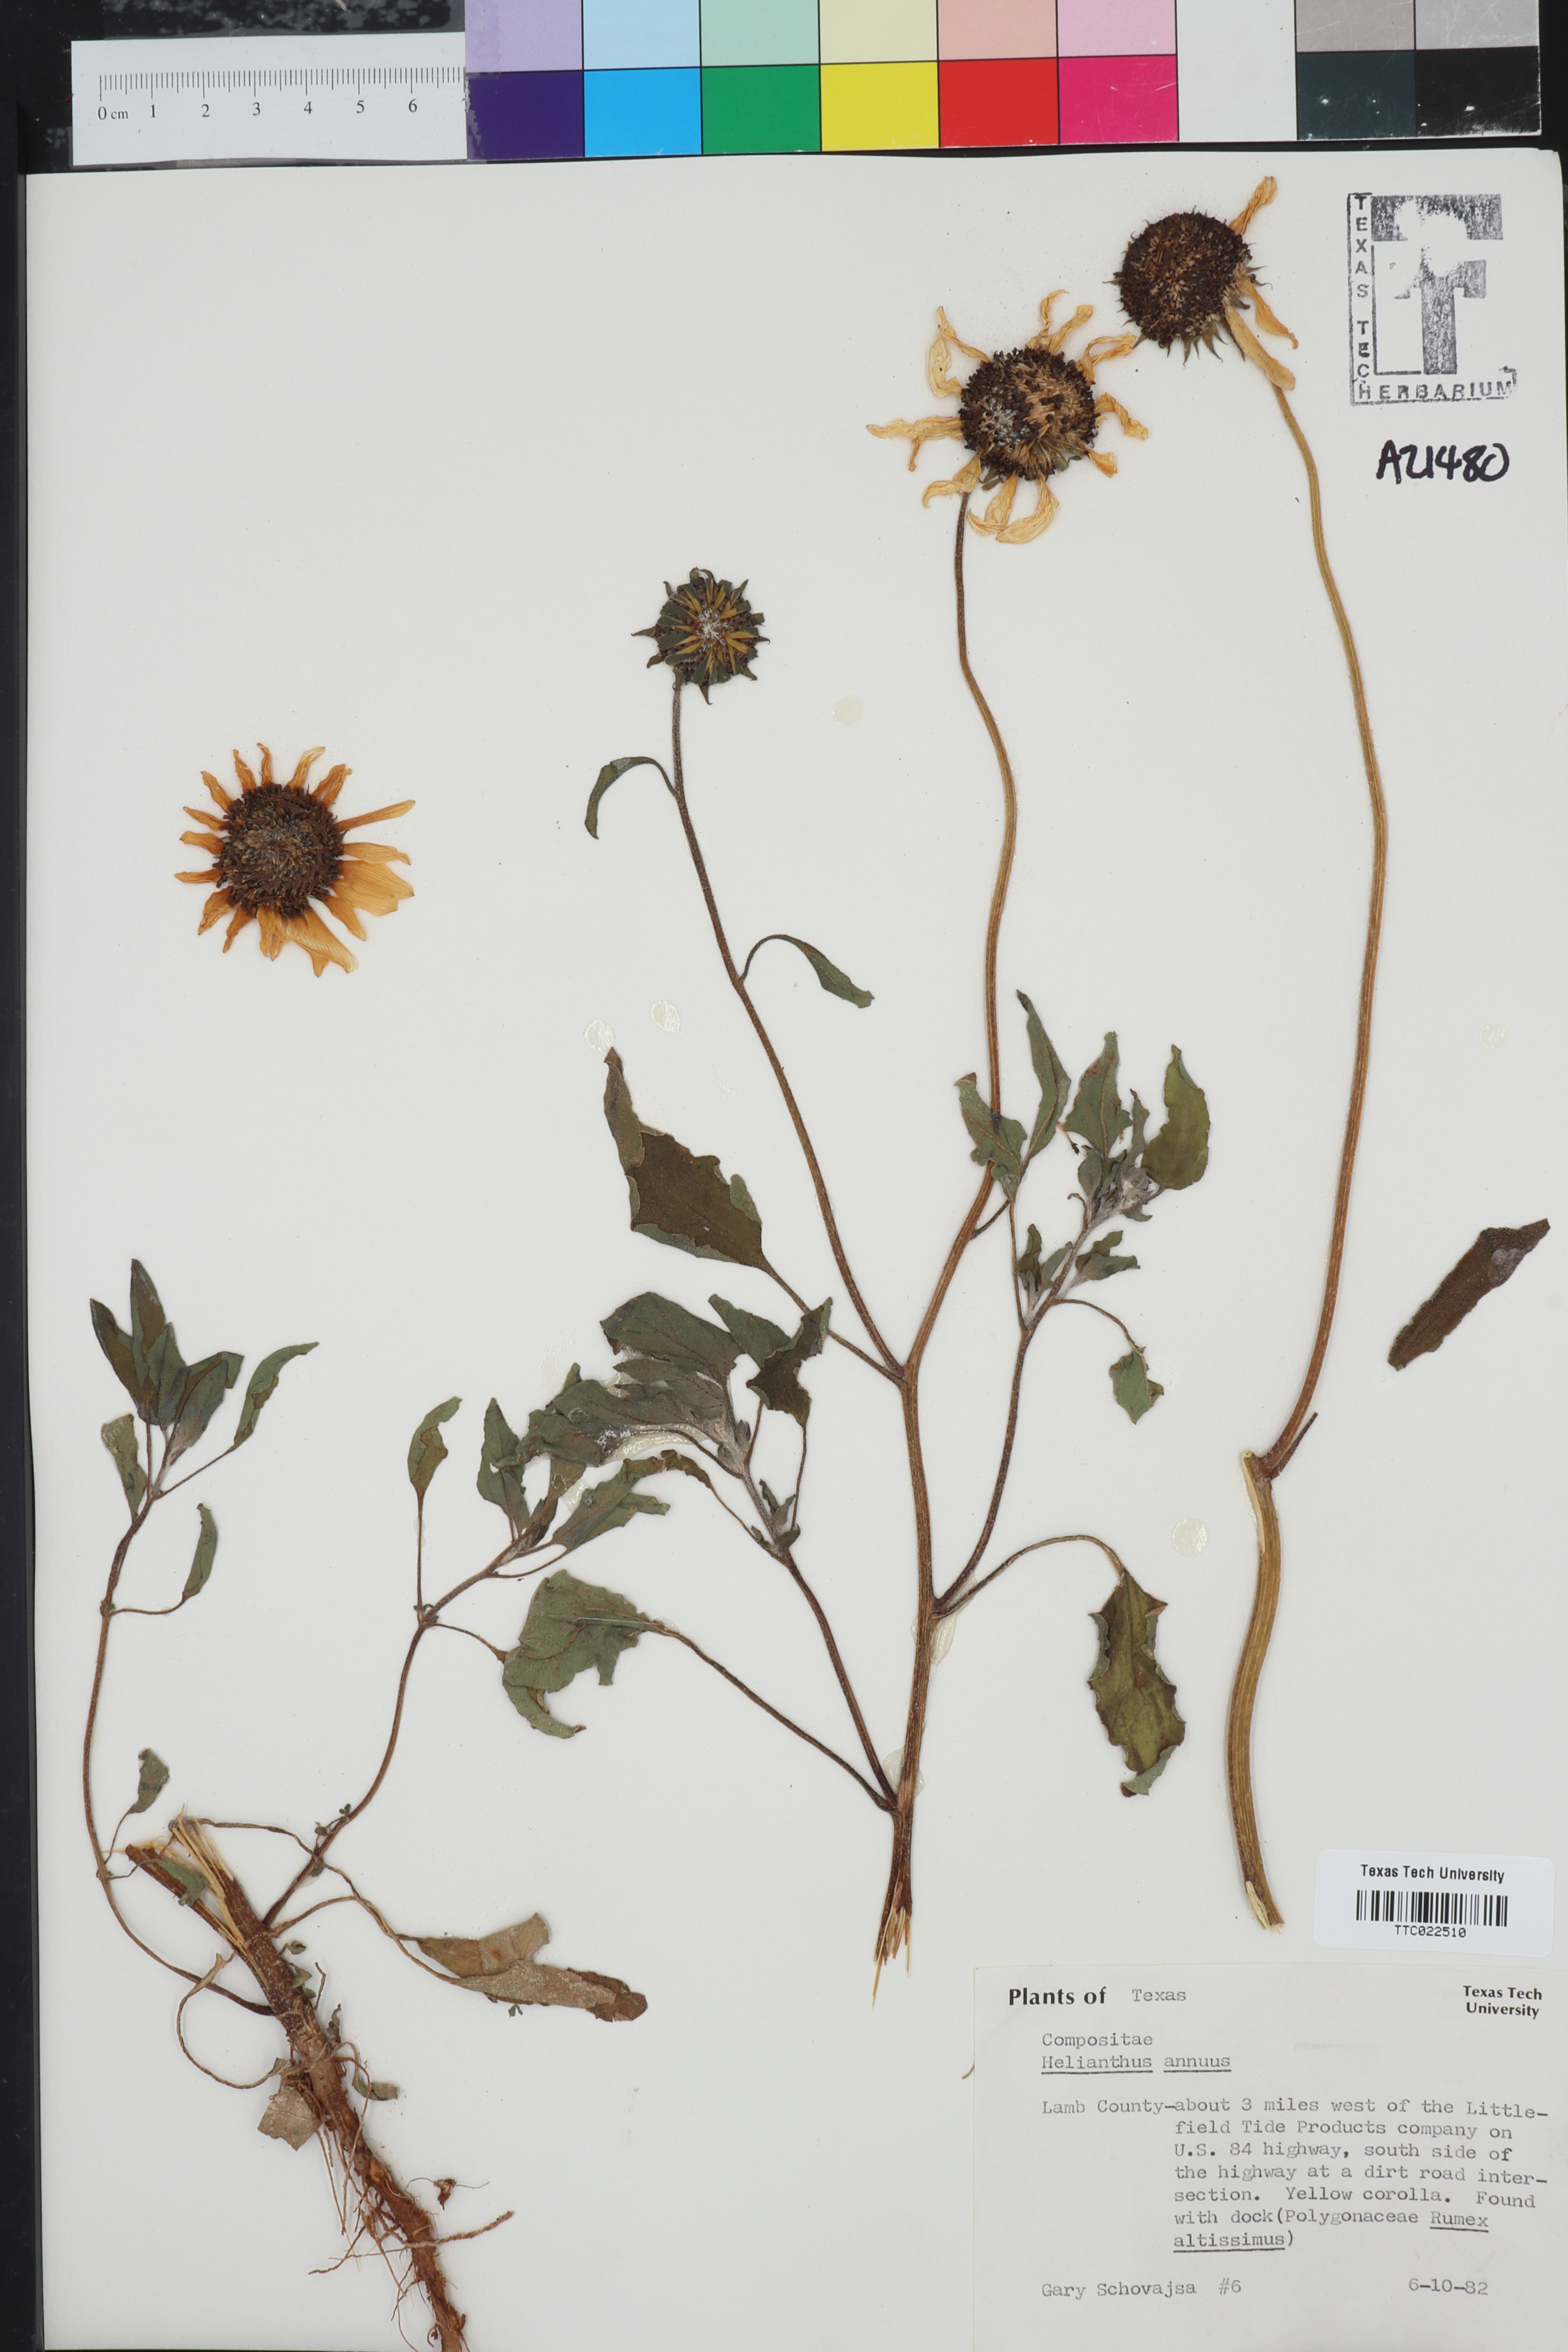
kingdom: Plantae
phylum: Tracheophyta
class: Magnoliopsida
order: Asterales
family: Asteraceae
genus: Helianthus
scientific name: Helianthus annuus
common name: Sunflower
